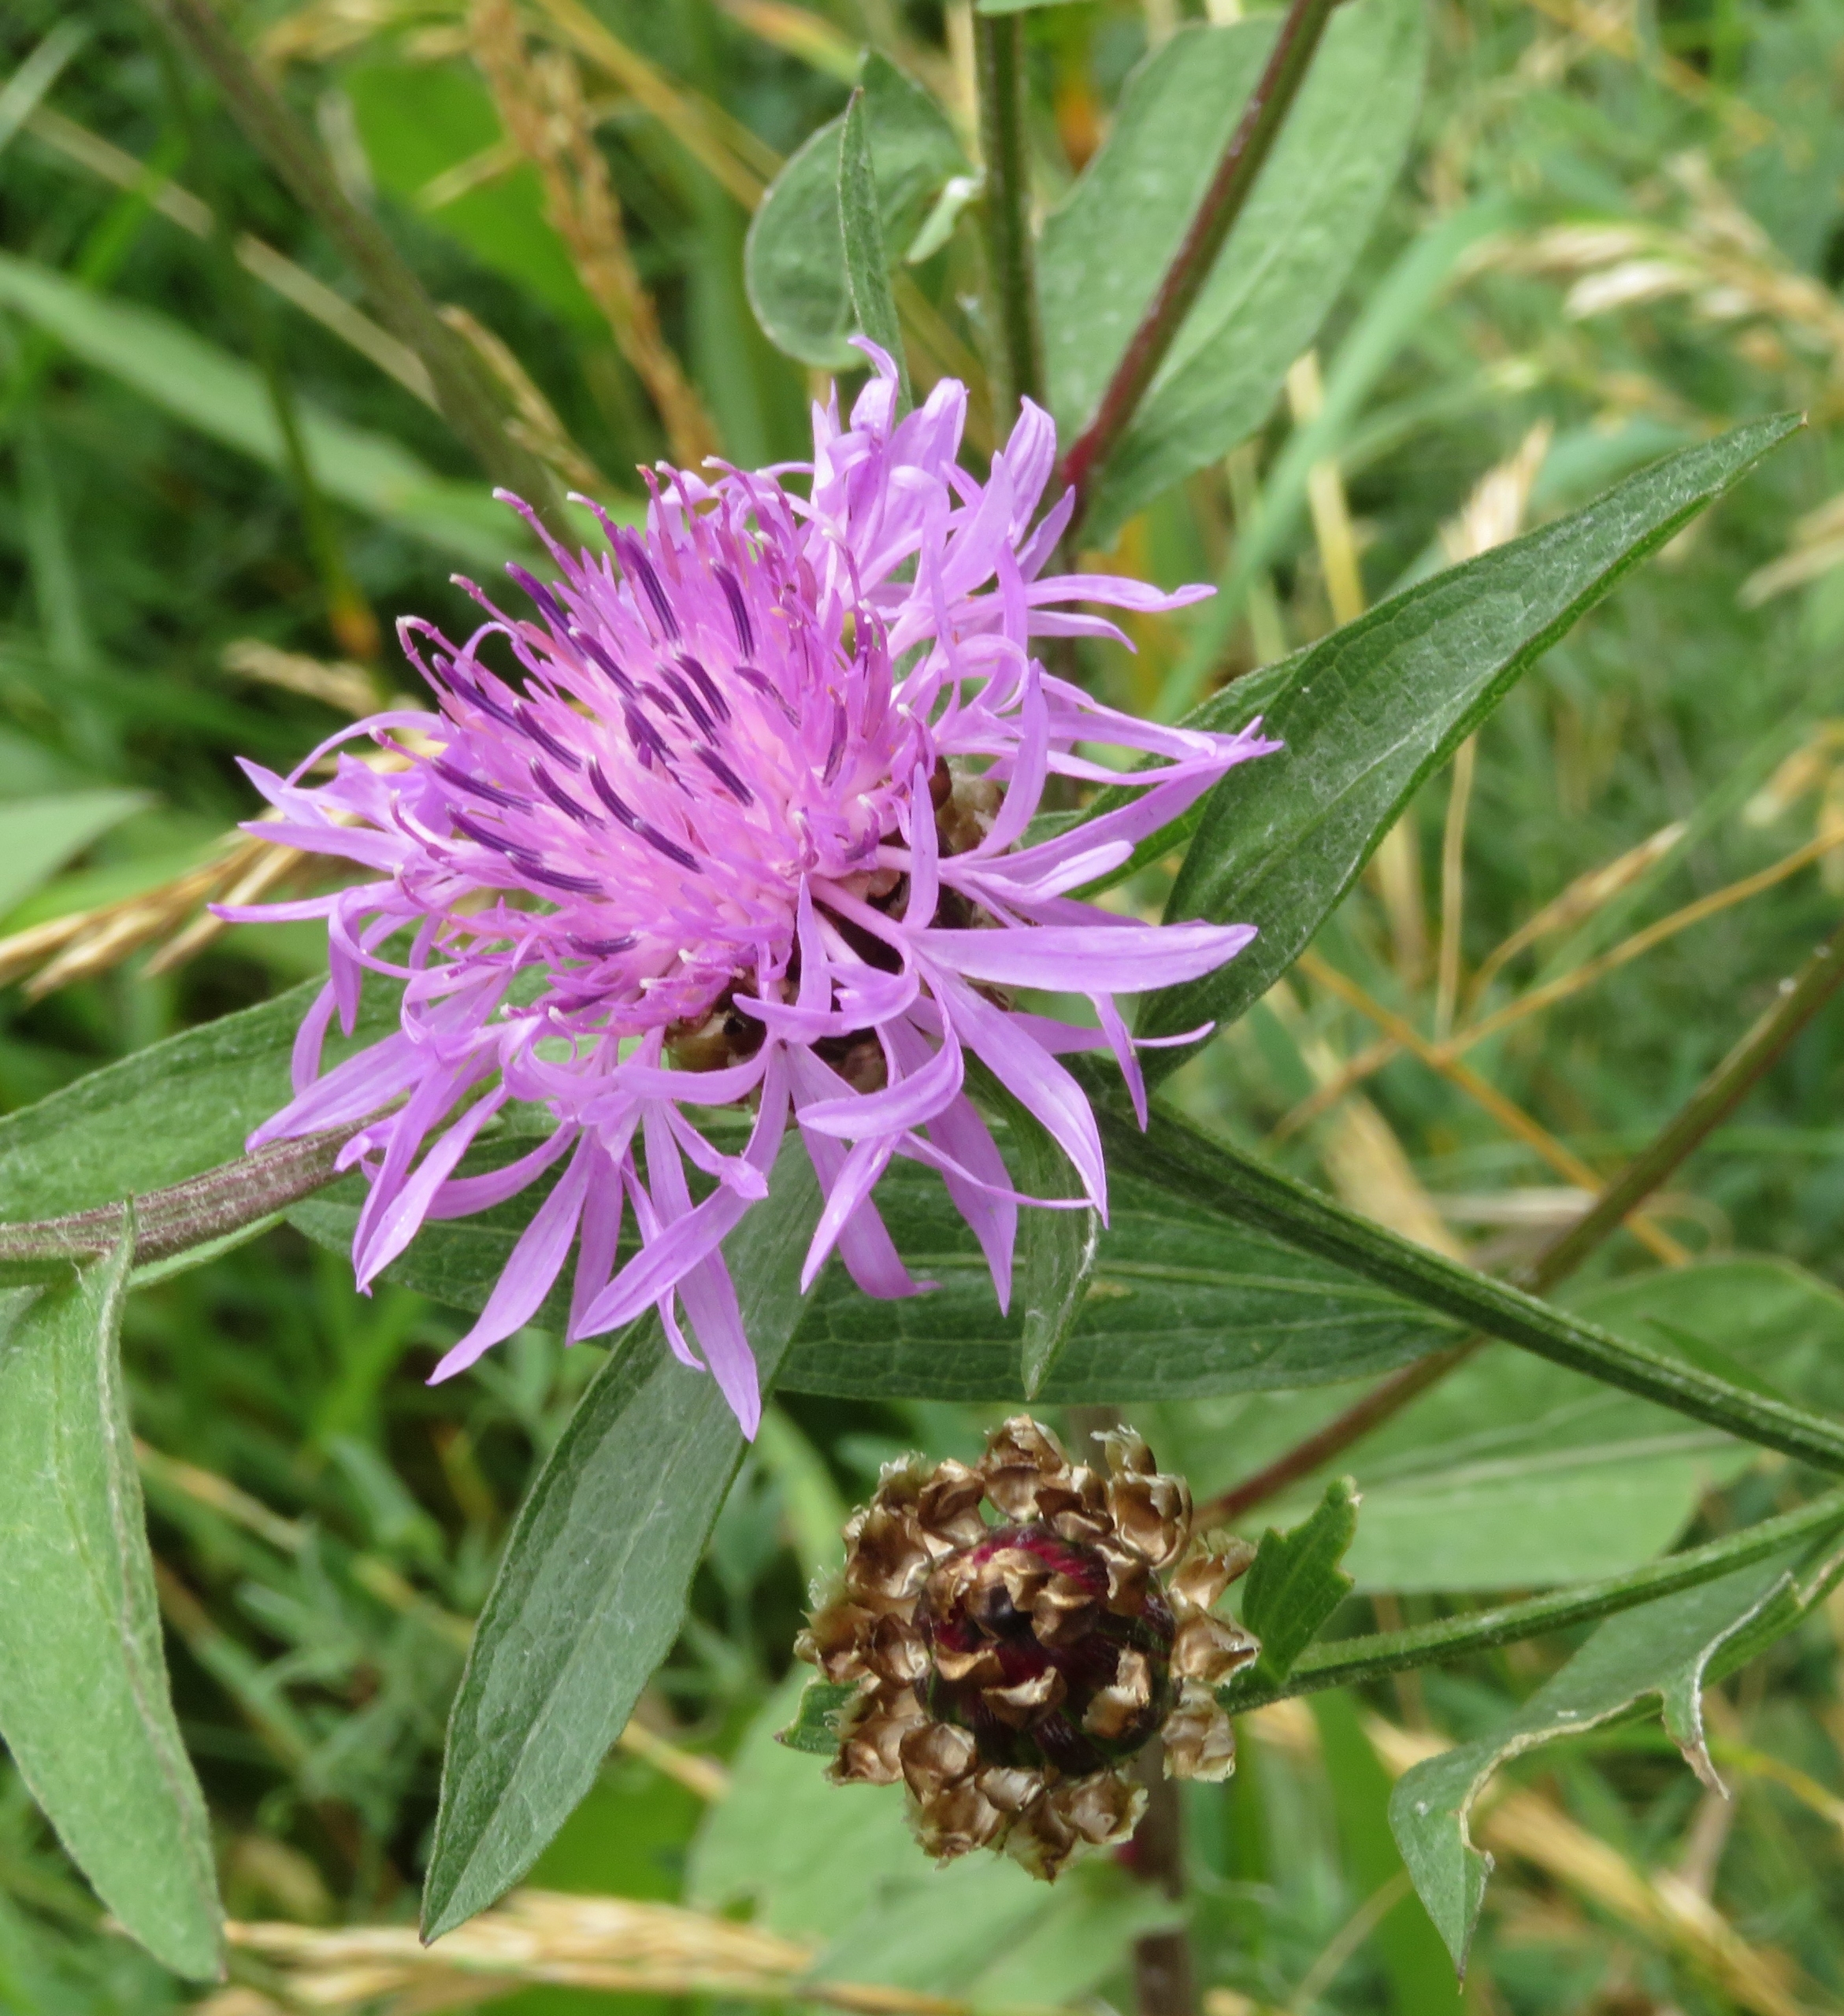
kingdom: Plantae
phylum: Tracheophyta
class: Magnoliopsida
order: Asterales
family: Asteraceae
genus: Centaurea
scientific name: Centaurea jacea
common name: Almindelig knopurt
